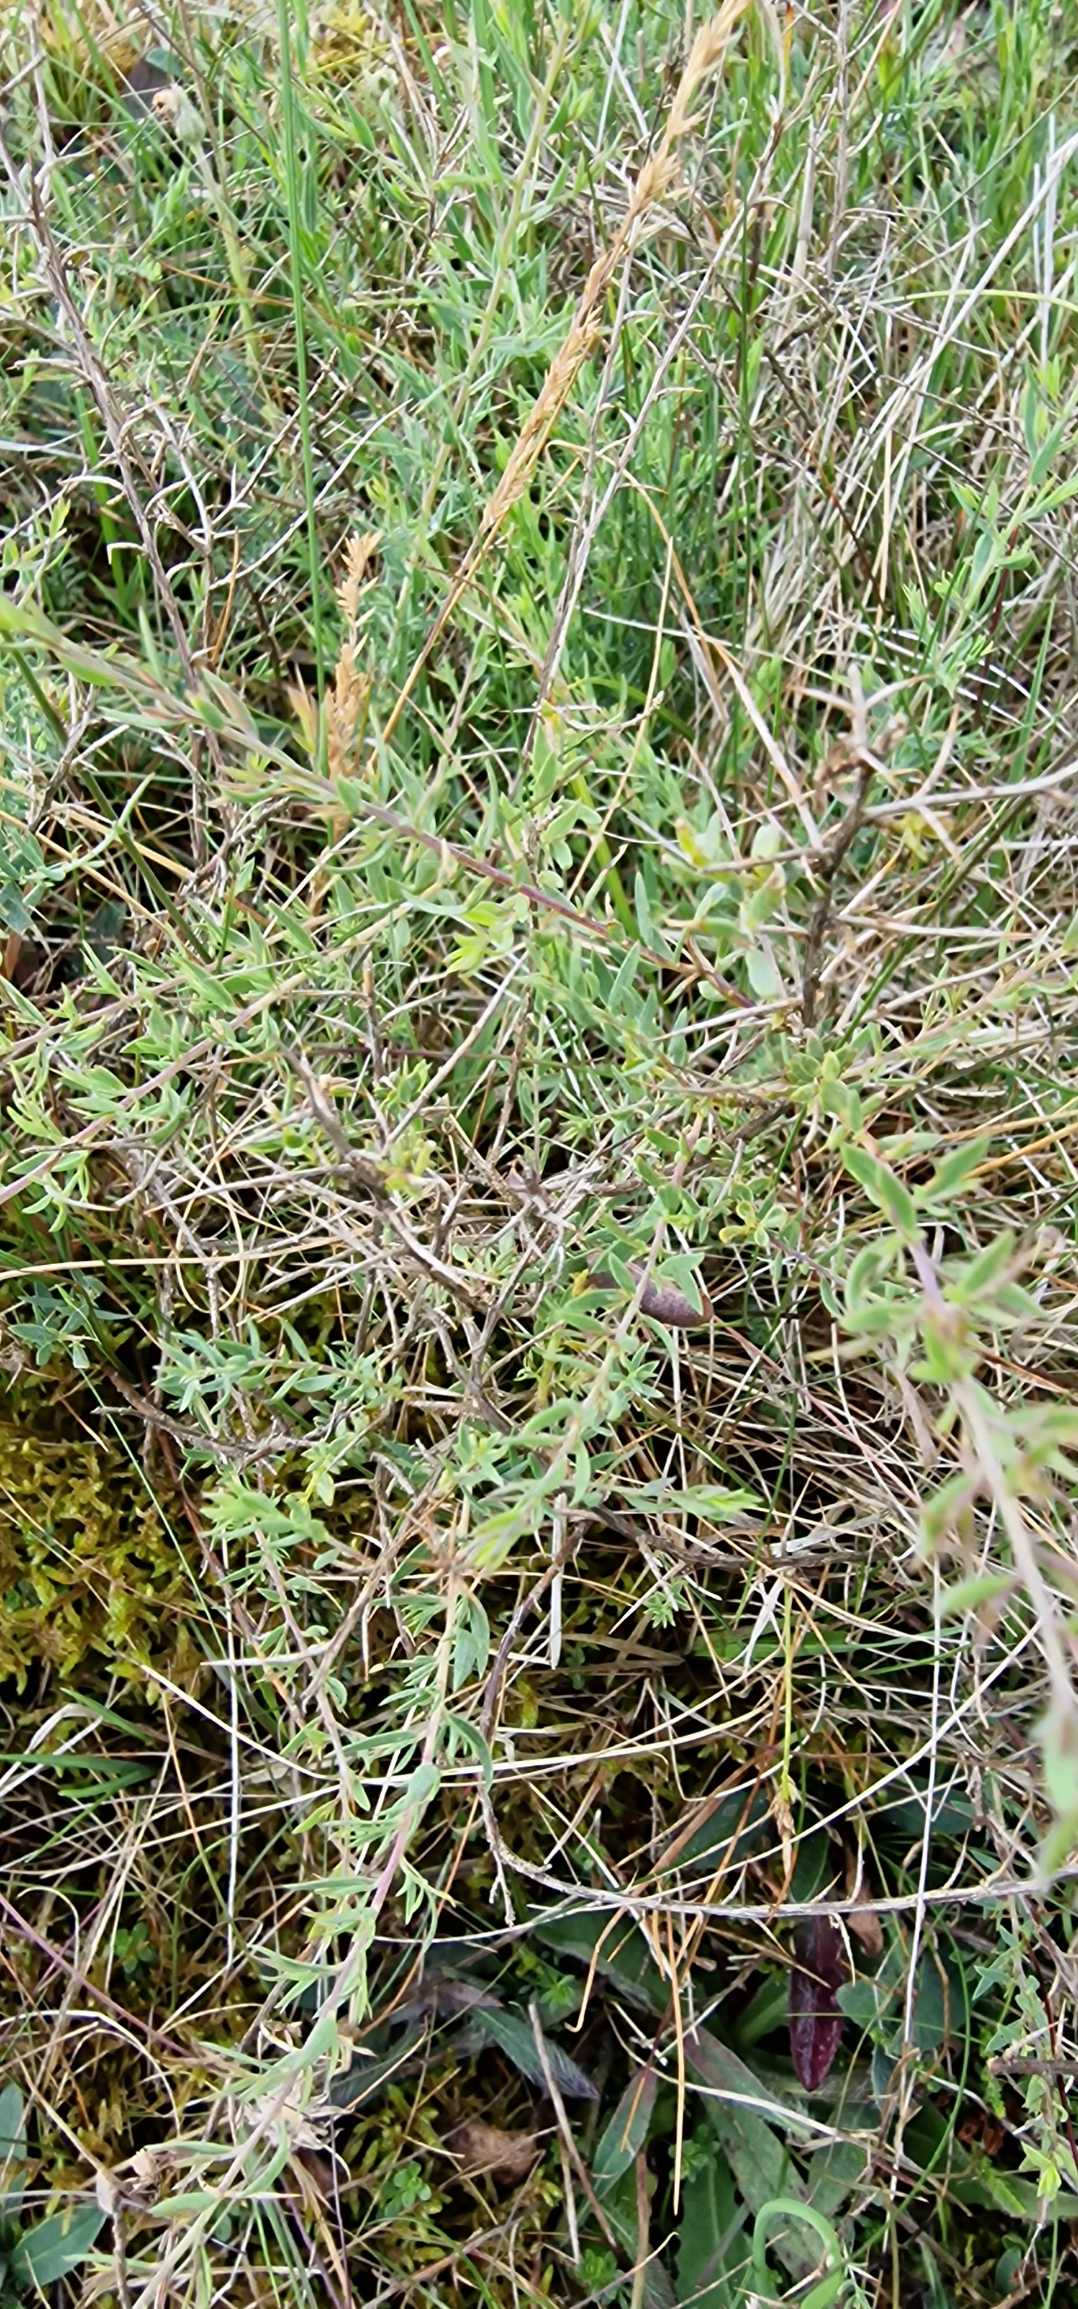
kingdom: Plantae
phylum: Tracheophyta
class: Magnoliopsida
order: Fabales
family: Fabaceae
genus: Genista
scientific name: Genista anglica
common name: Engelsk visse
